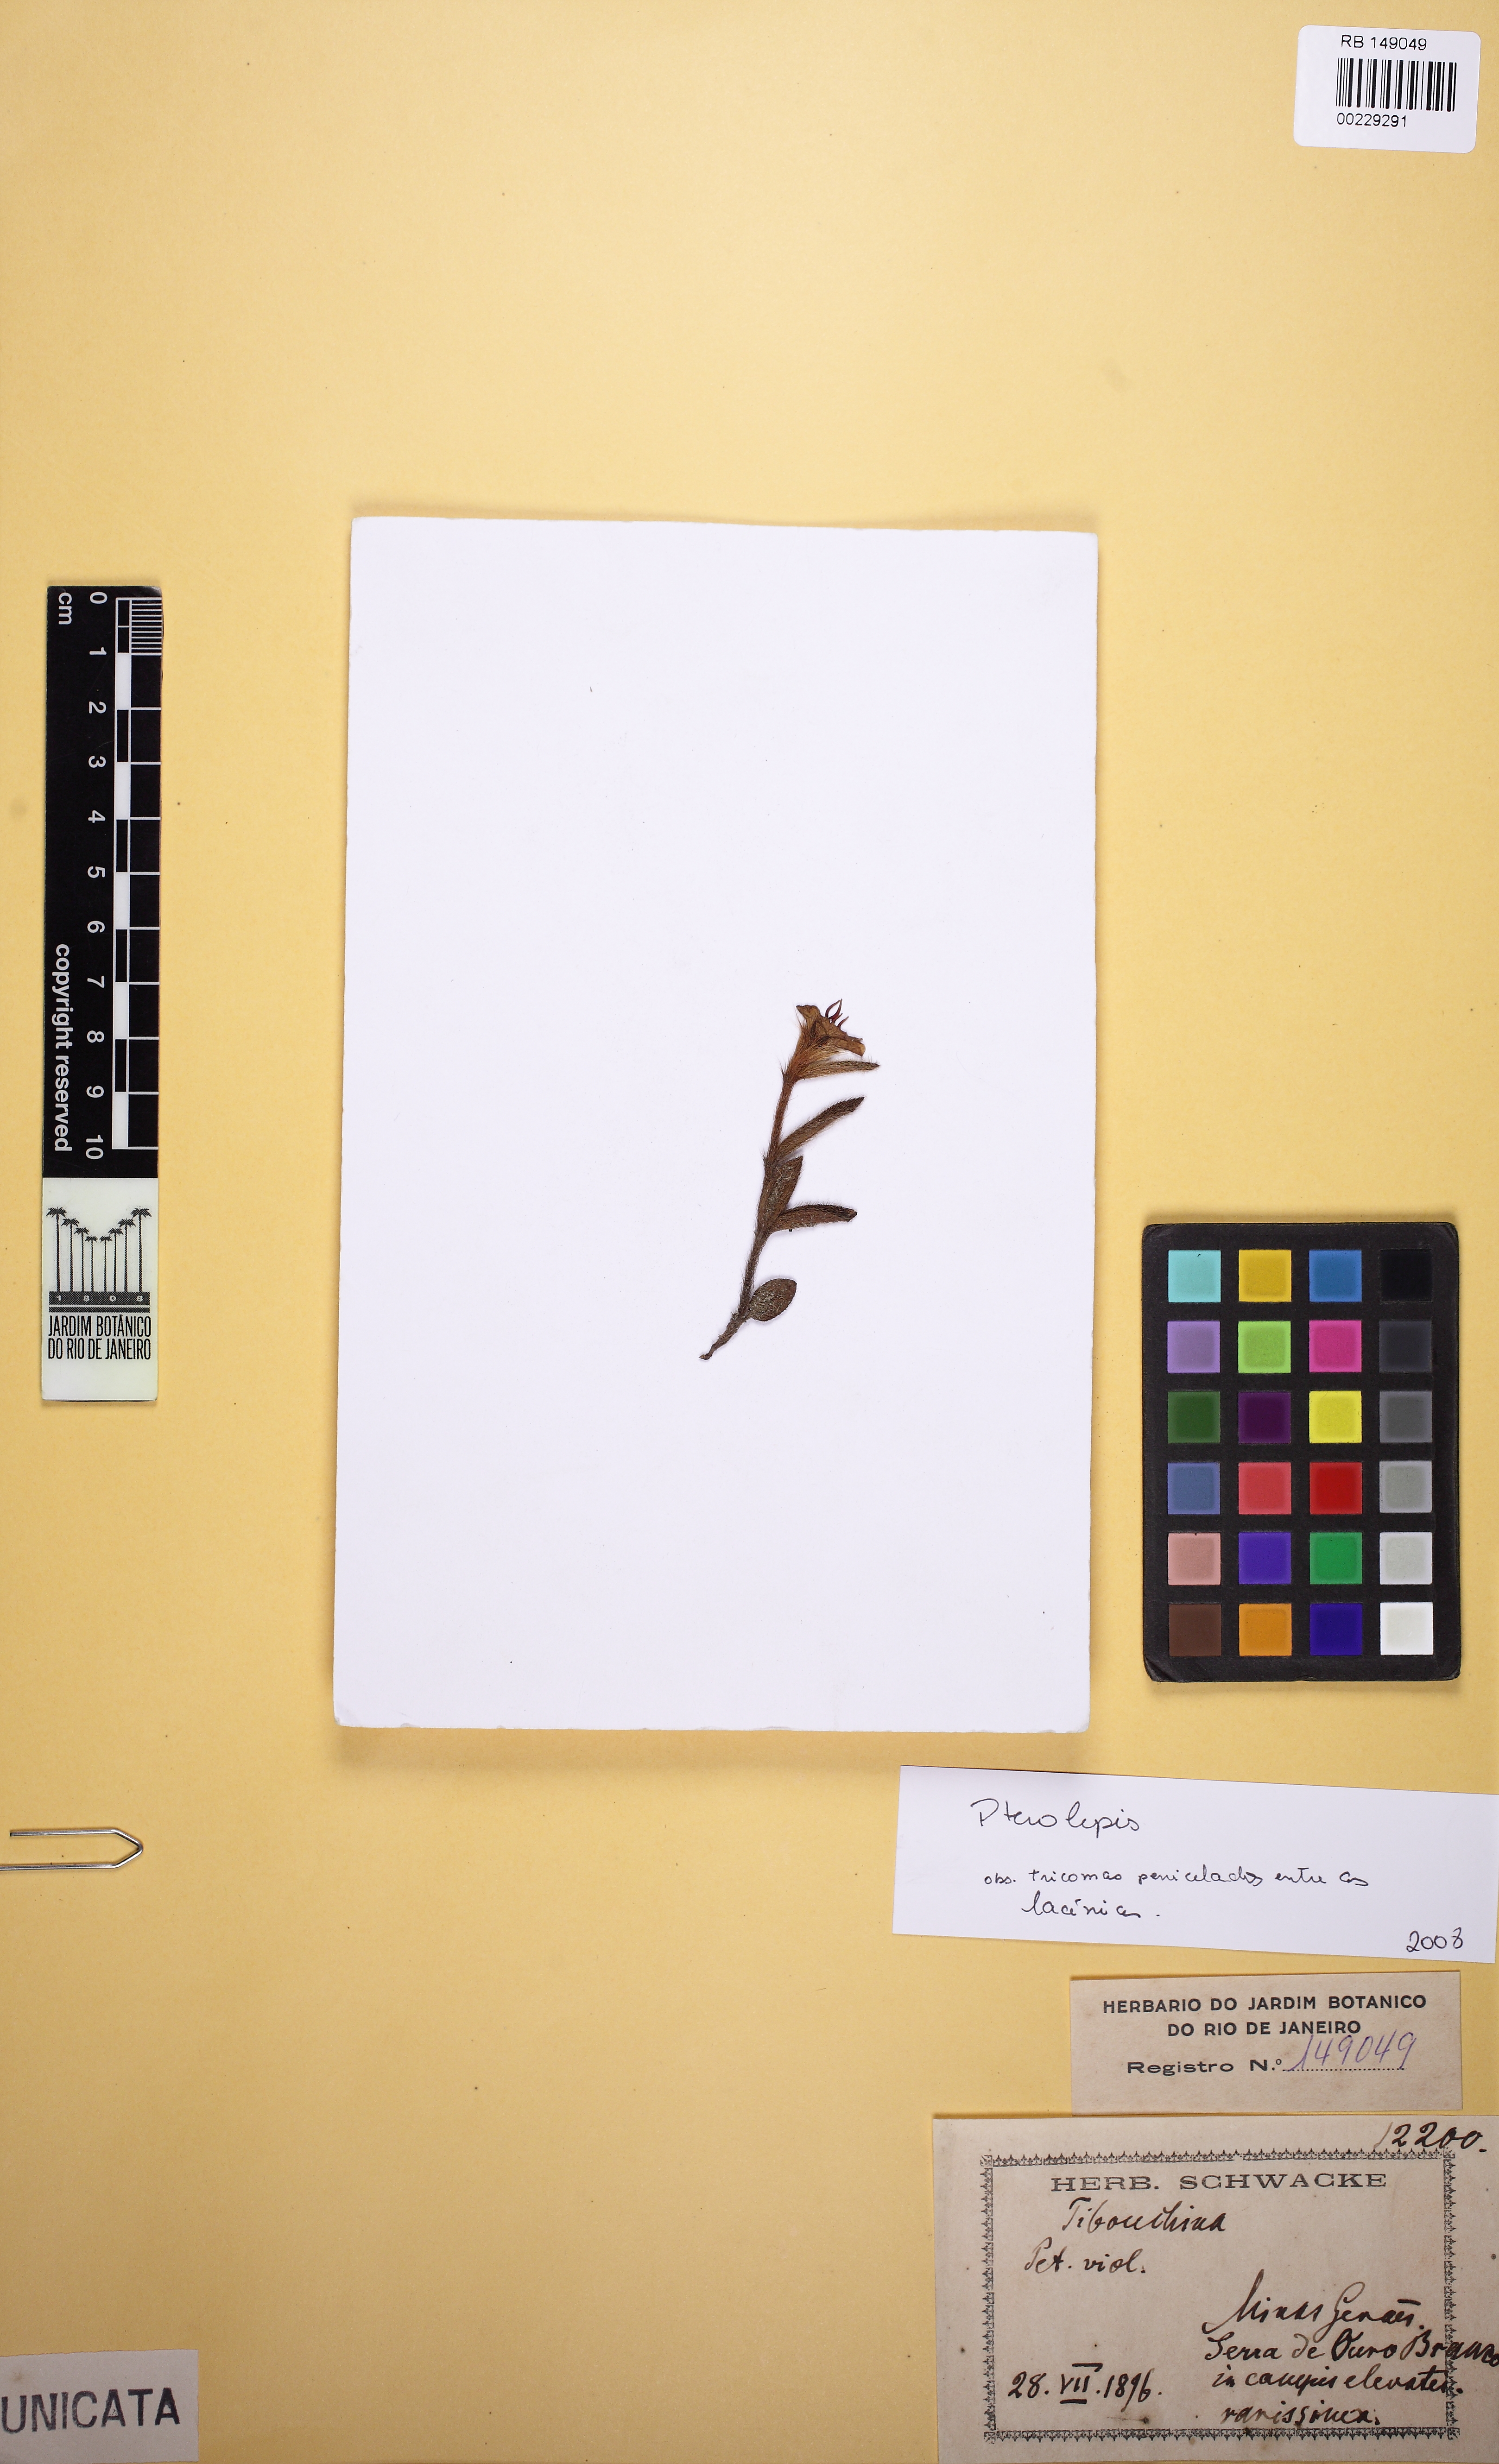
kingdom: Plantae
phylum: Tracheophyta
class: Magnoliopsida
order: Myrtales
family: Melastomataceae
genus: Pterolepis
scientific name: Pterolepis repanda
